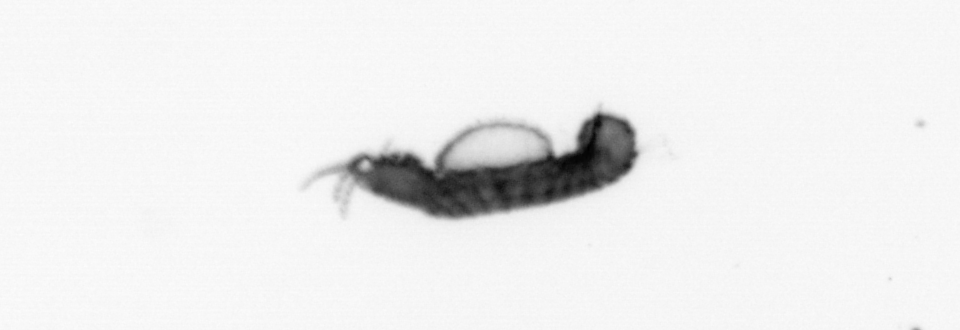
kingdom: Animalia
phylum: Annelida
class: Polychaeta
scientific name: Polychaeta
